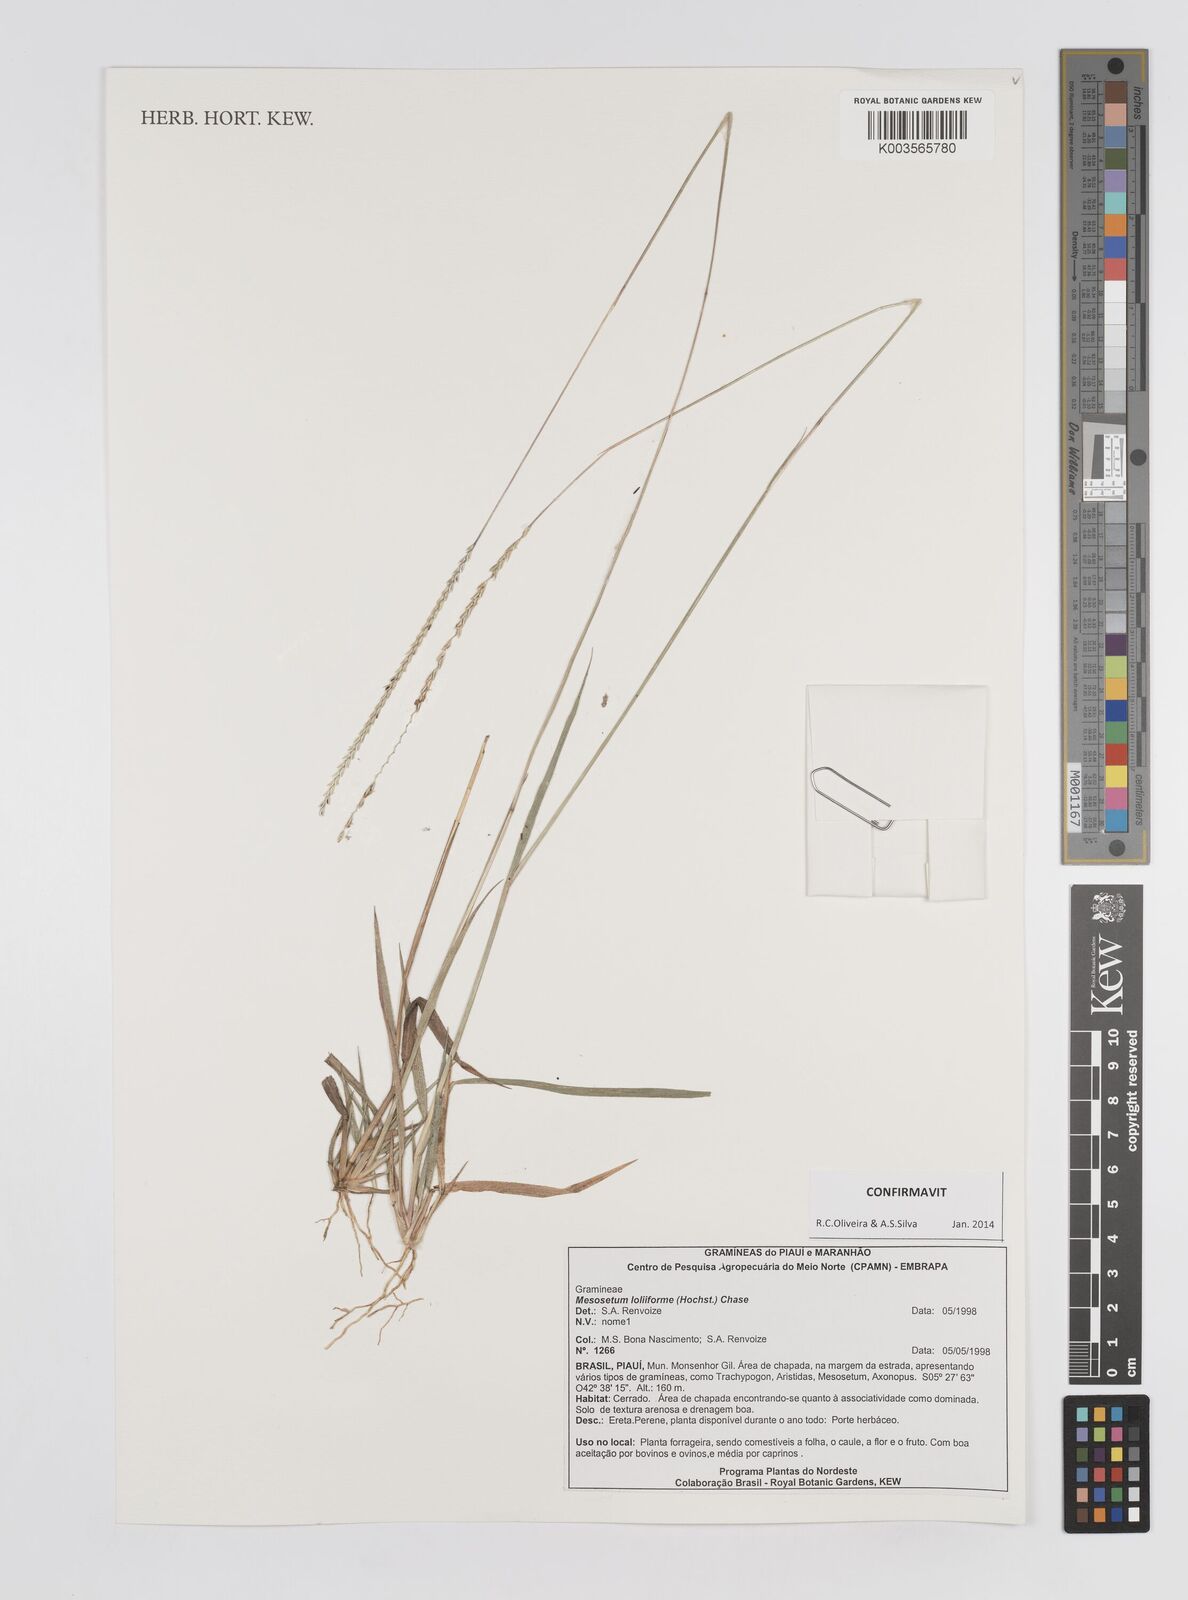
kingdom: Plantae
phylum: Tracheophyta
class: Liliopsida
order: Poales
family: Poaceae
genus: Mesosetum
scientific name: Mesosetum loliiforme
